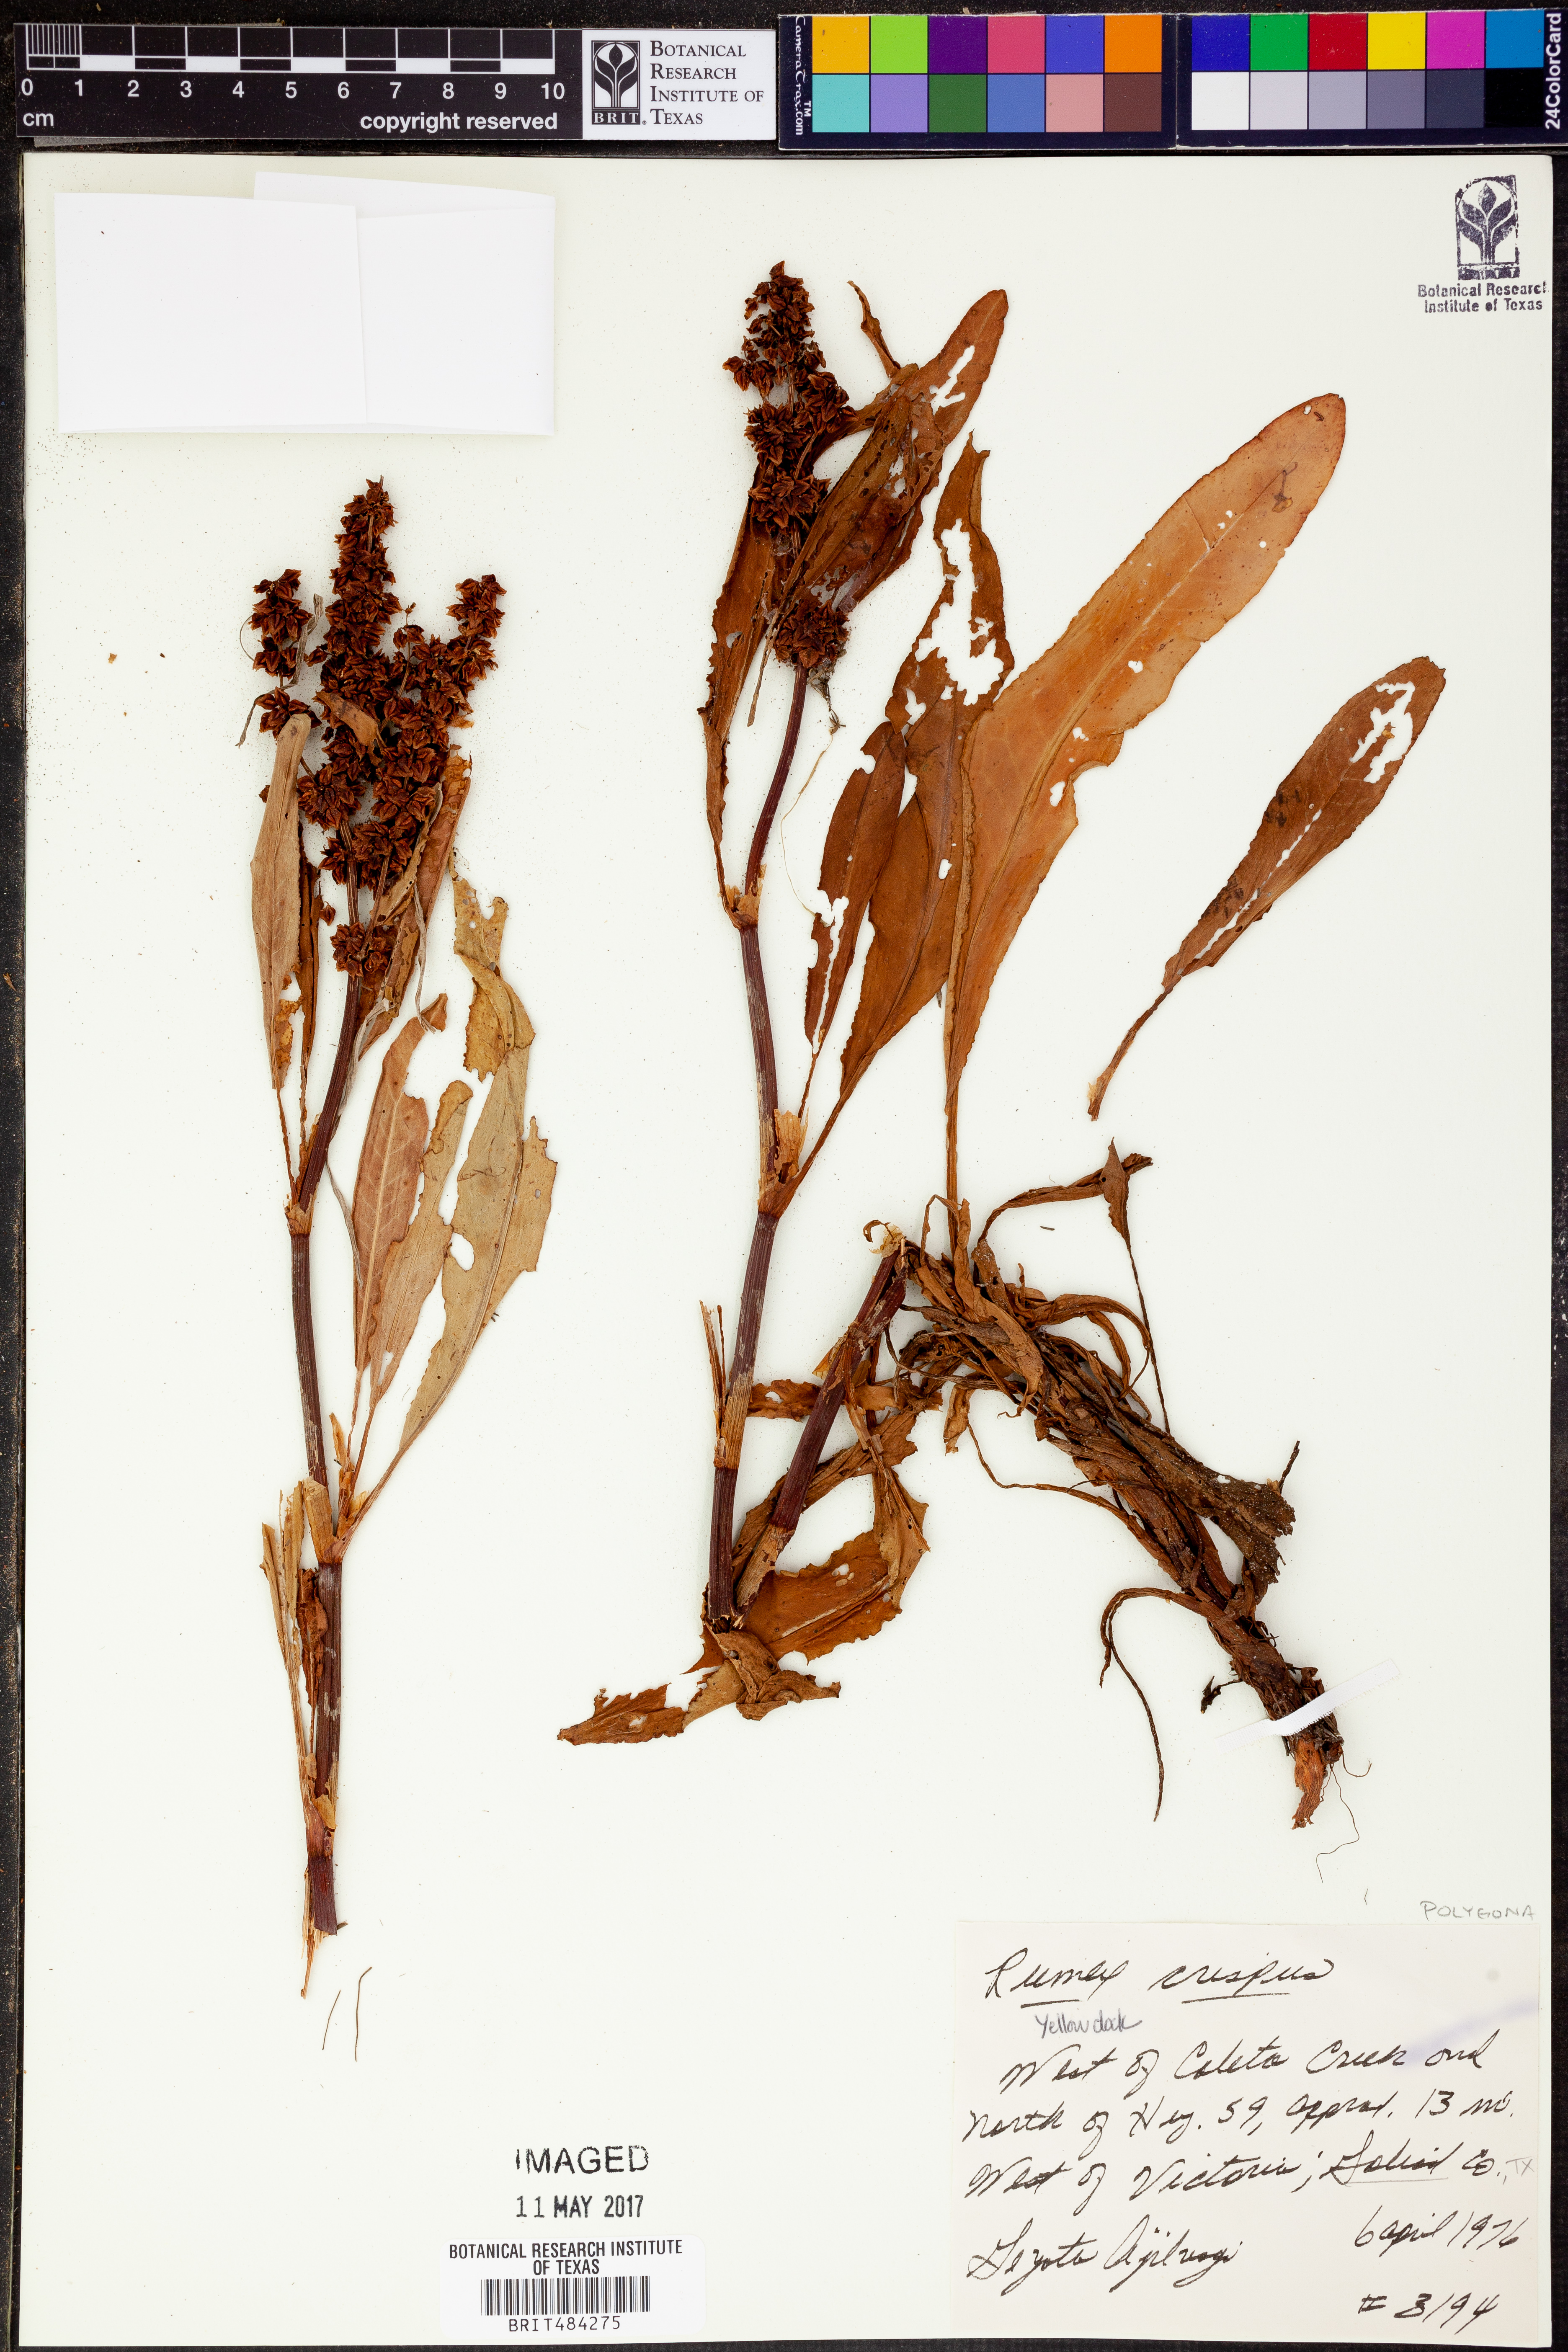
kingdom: Plantae
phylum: Tracheophyta
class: Magnoliopsida
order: Caryophyllales
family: Polygonaceae
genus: Rumex
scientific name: Rumex crispus
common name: Curled dock
